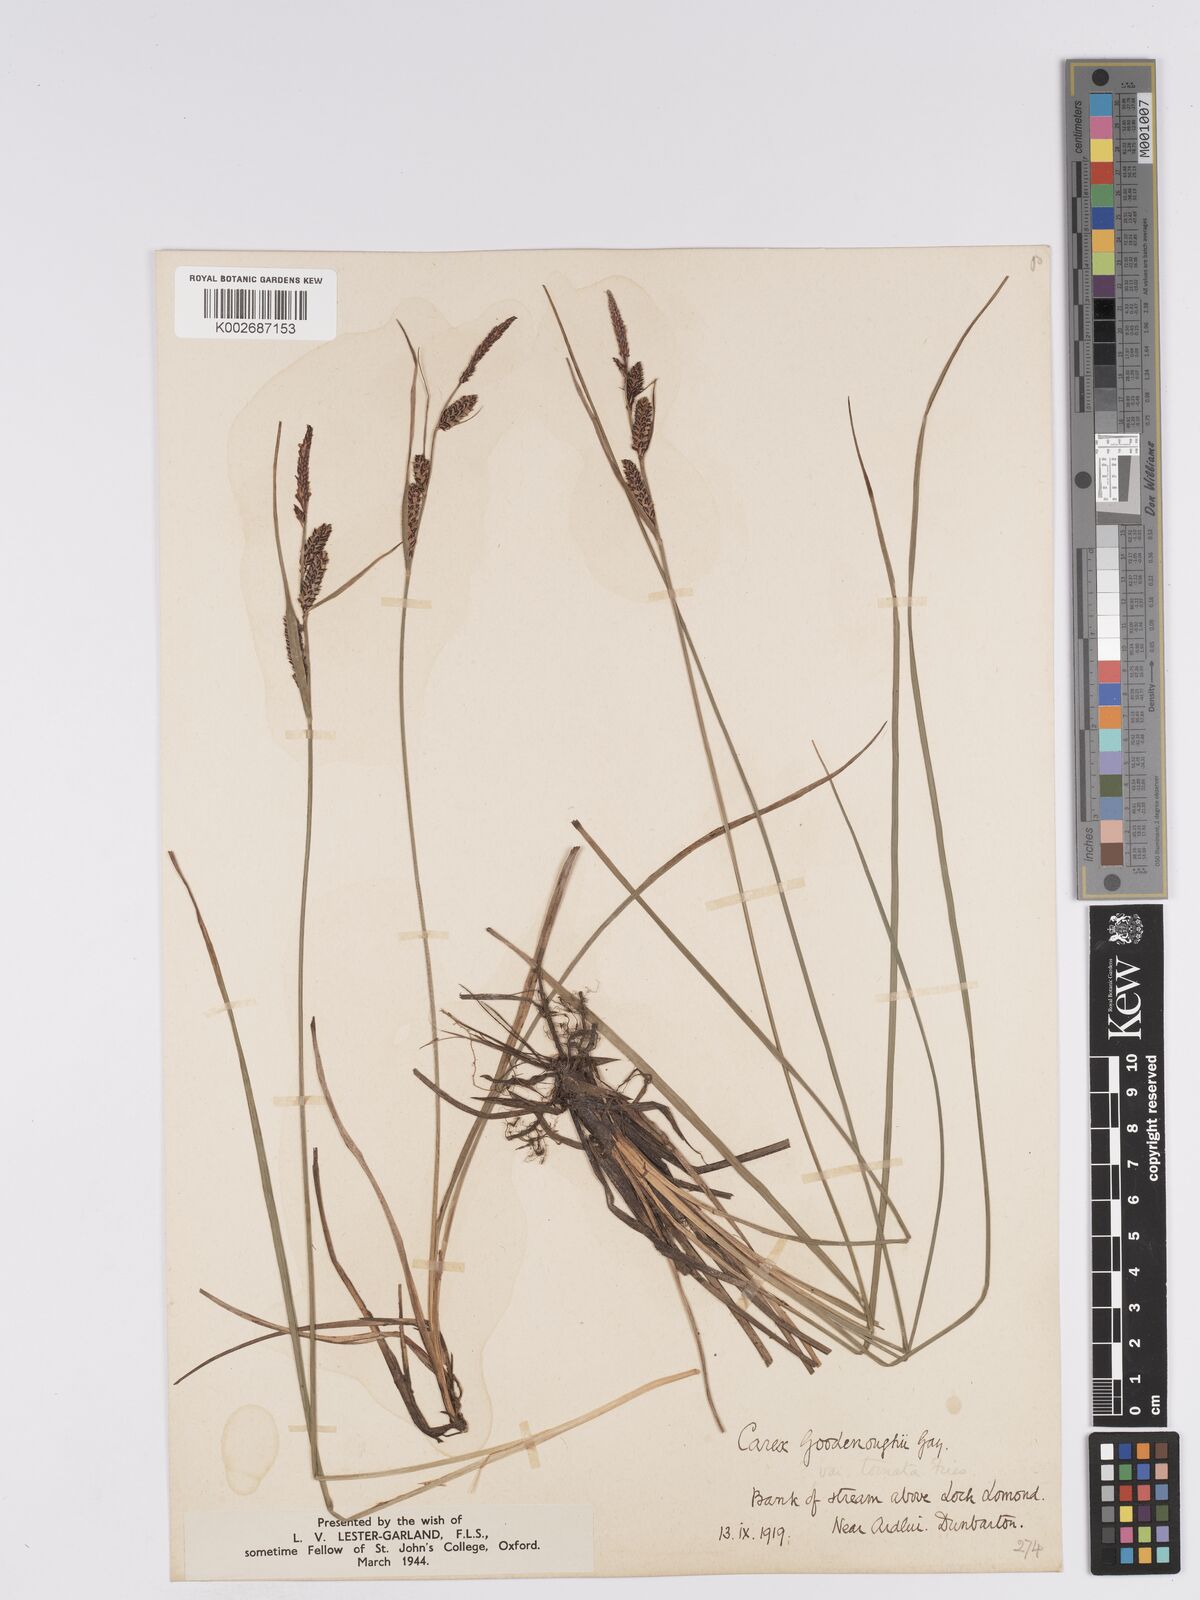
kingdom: Plantae
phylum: Tracheophyta
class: Liliopsida
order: Poales
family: Cyperaceae
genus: Carex
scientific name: Carex nigra
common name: Common sedge
